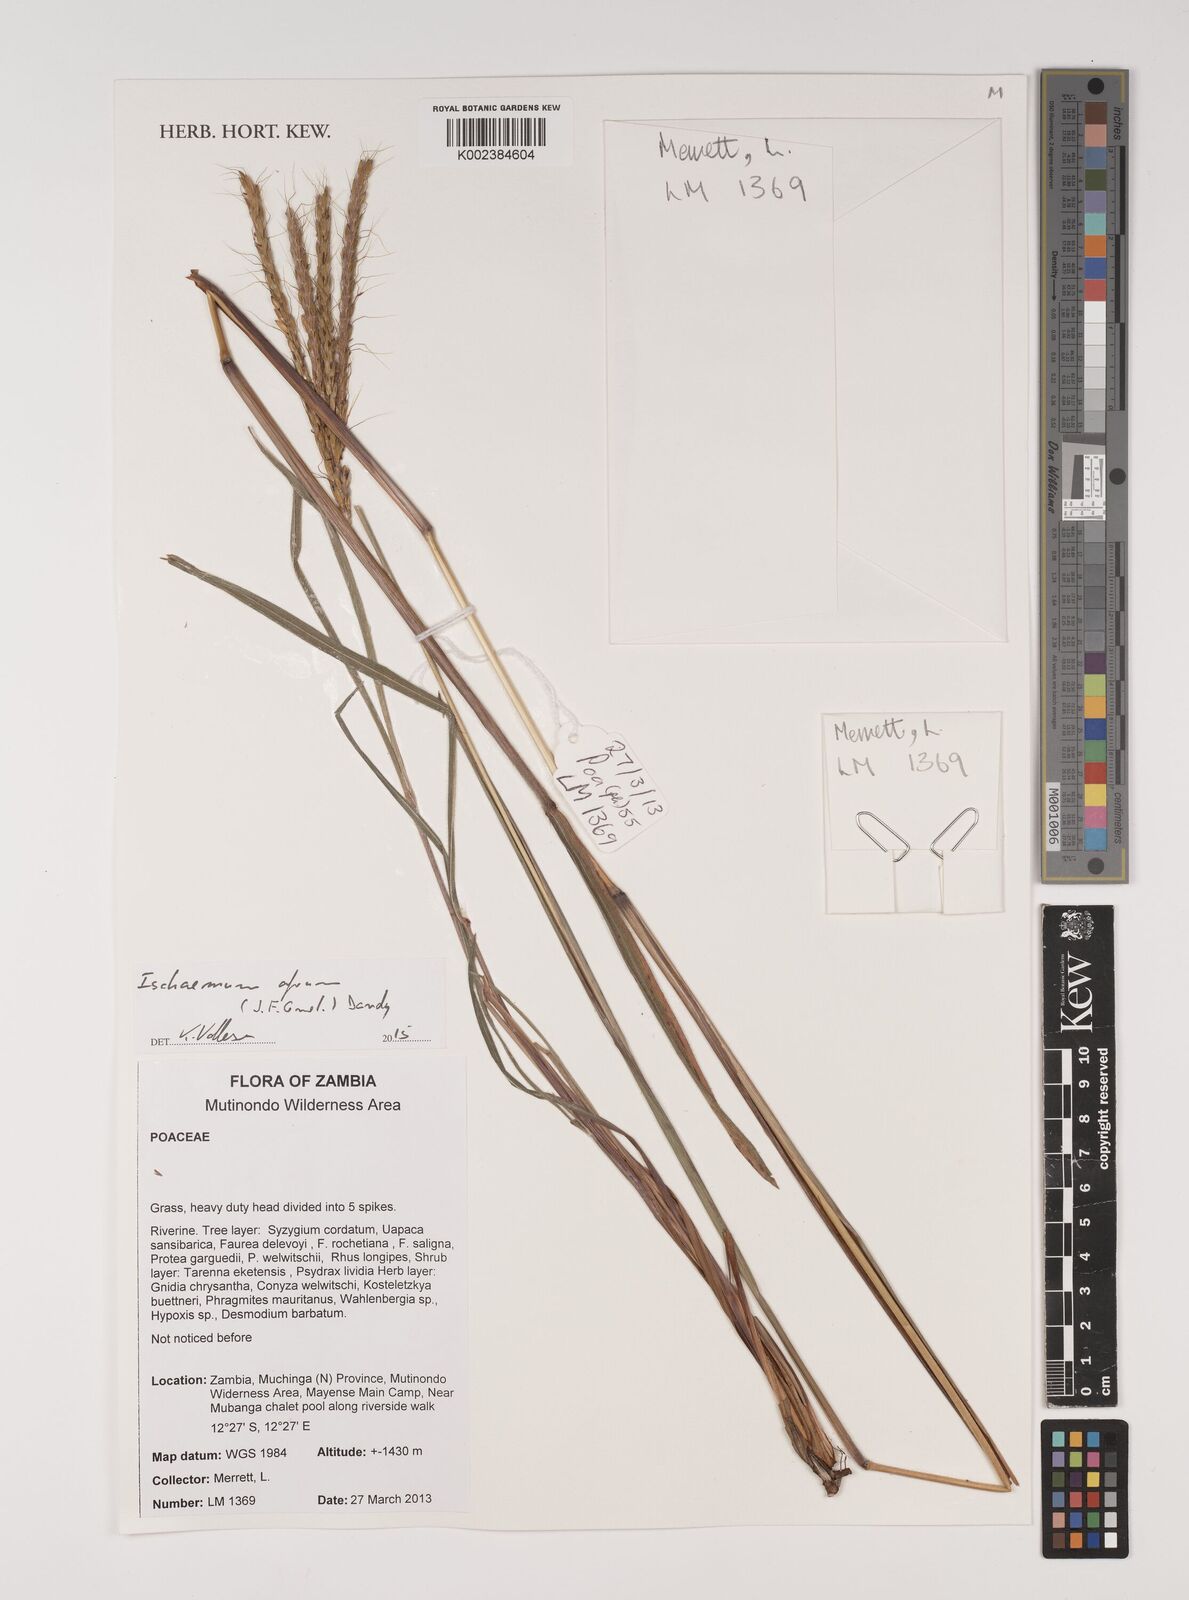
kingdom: Plantae
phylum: Tracheophyta
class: Liliopsida
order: Poales
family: Poaceae
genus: Ischaemum
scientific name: Ischaemum afrum
